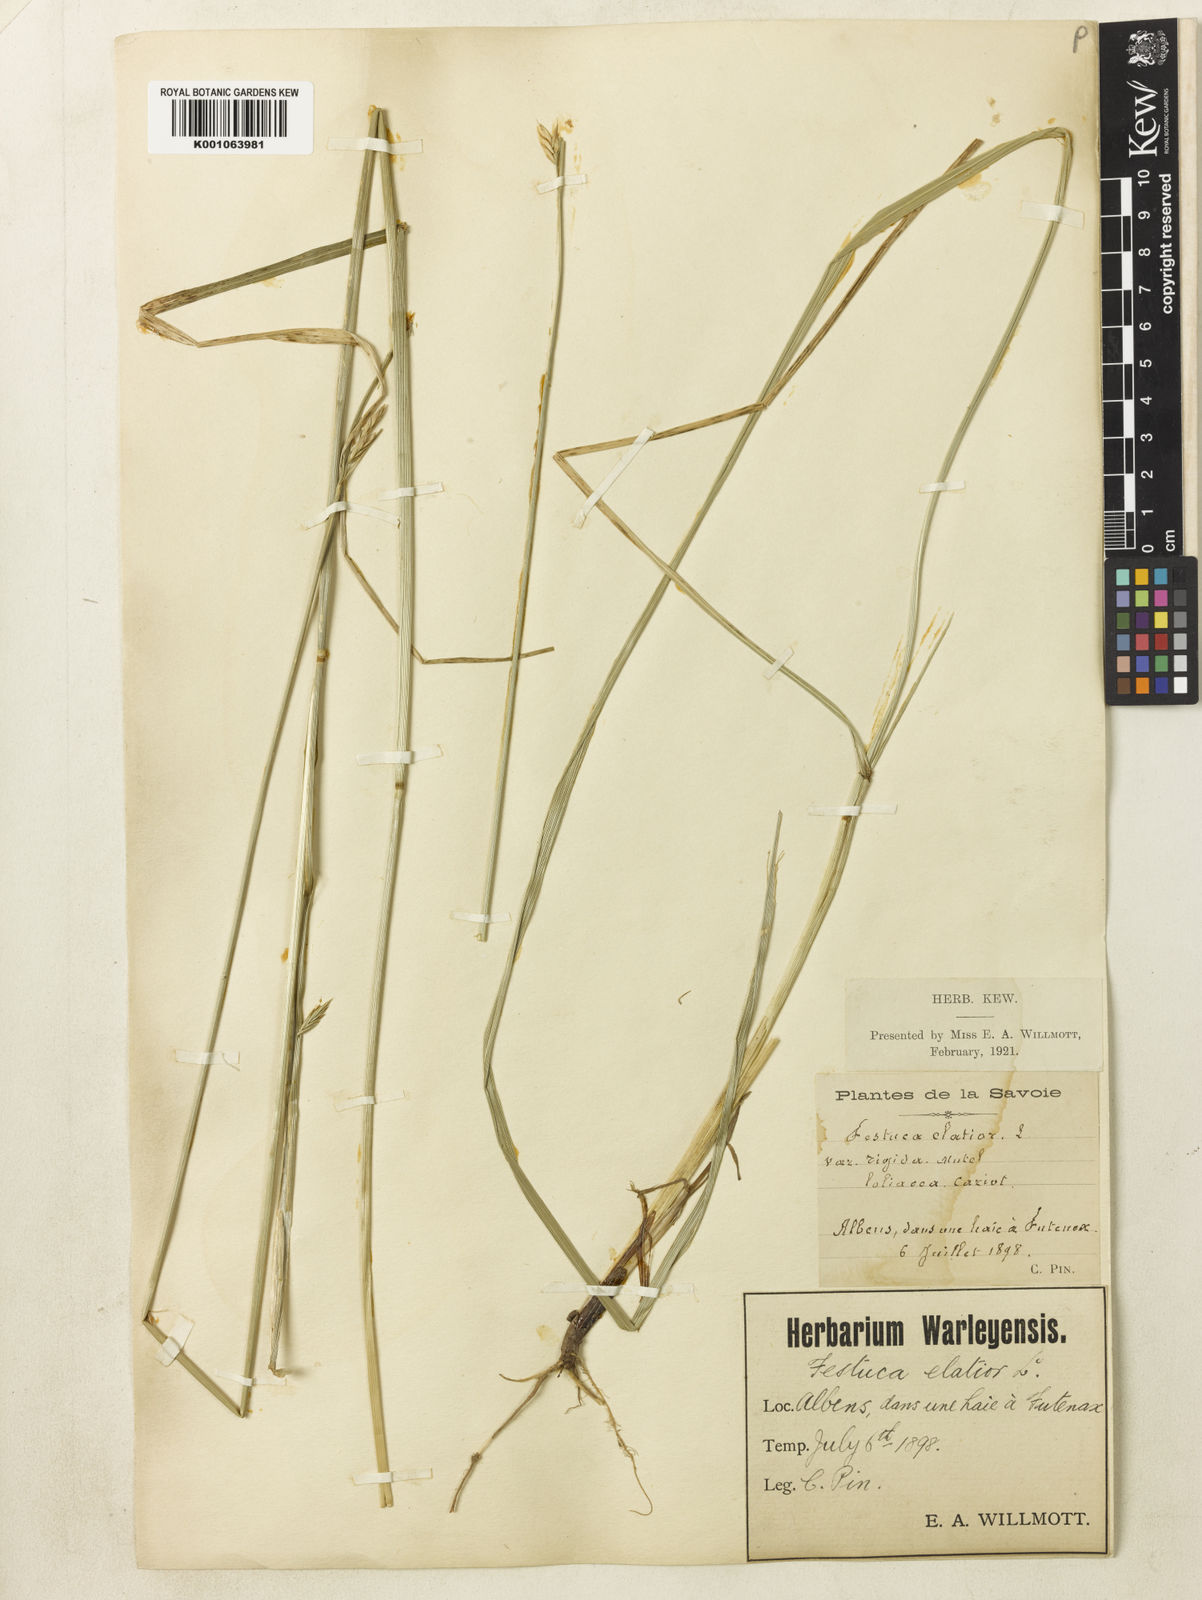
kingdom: Plantae
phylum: Tracheophyta
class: Liliopsida
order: Poales
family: Poaceae
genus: Lolium
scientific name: Lolium arundinaceum
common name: Reed fescue
